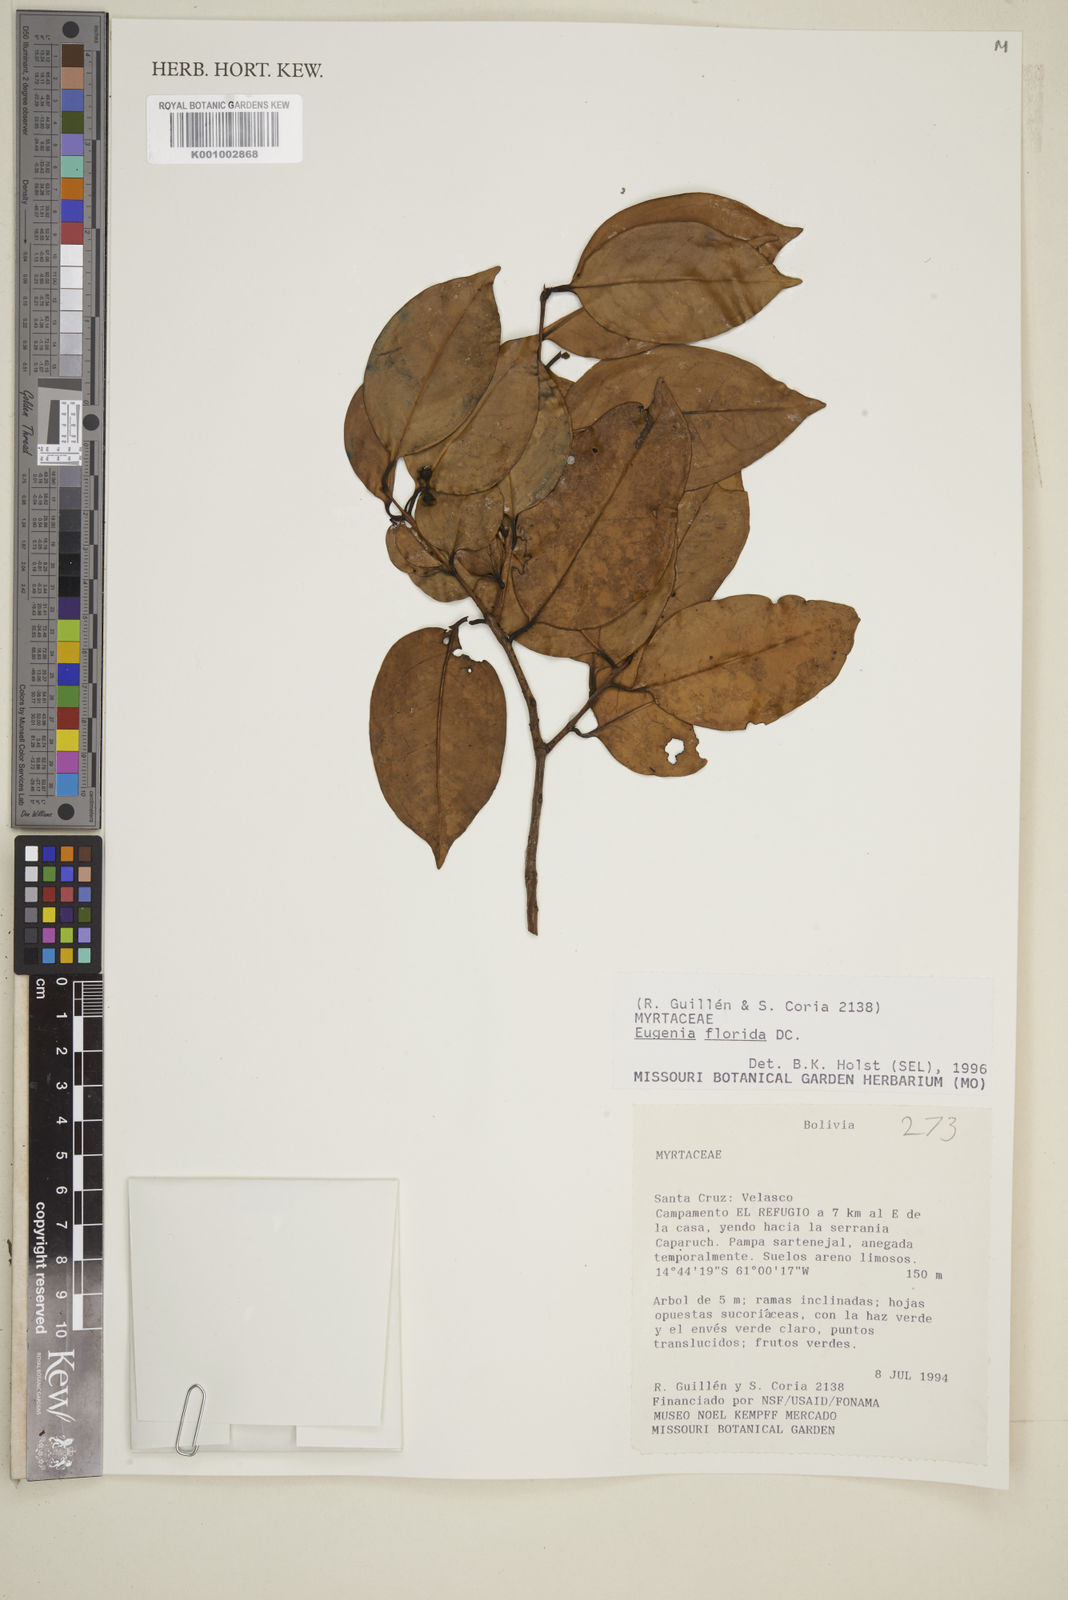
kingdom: Plantae
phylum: Tracheophyta
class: Magnoliopsida
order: Myrtales
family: Myrtaceae
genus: Eugenia
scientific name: Eugenia florida
